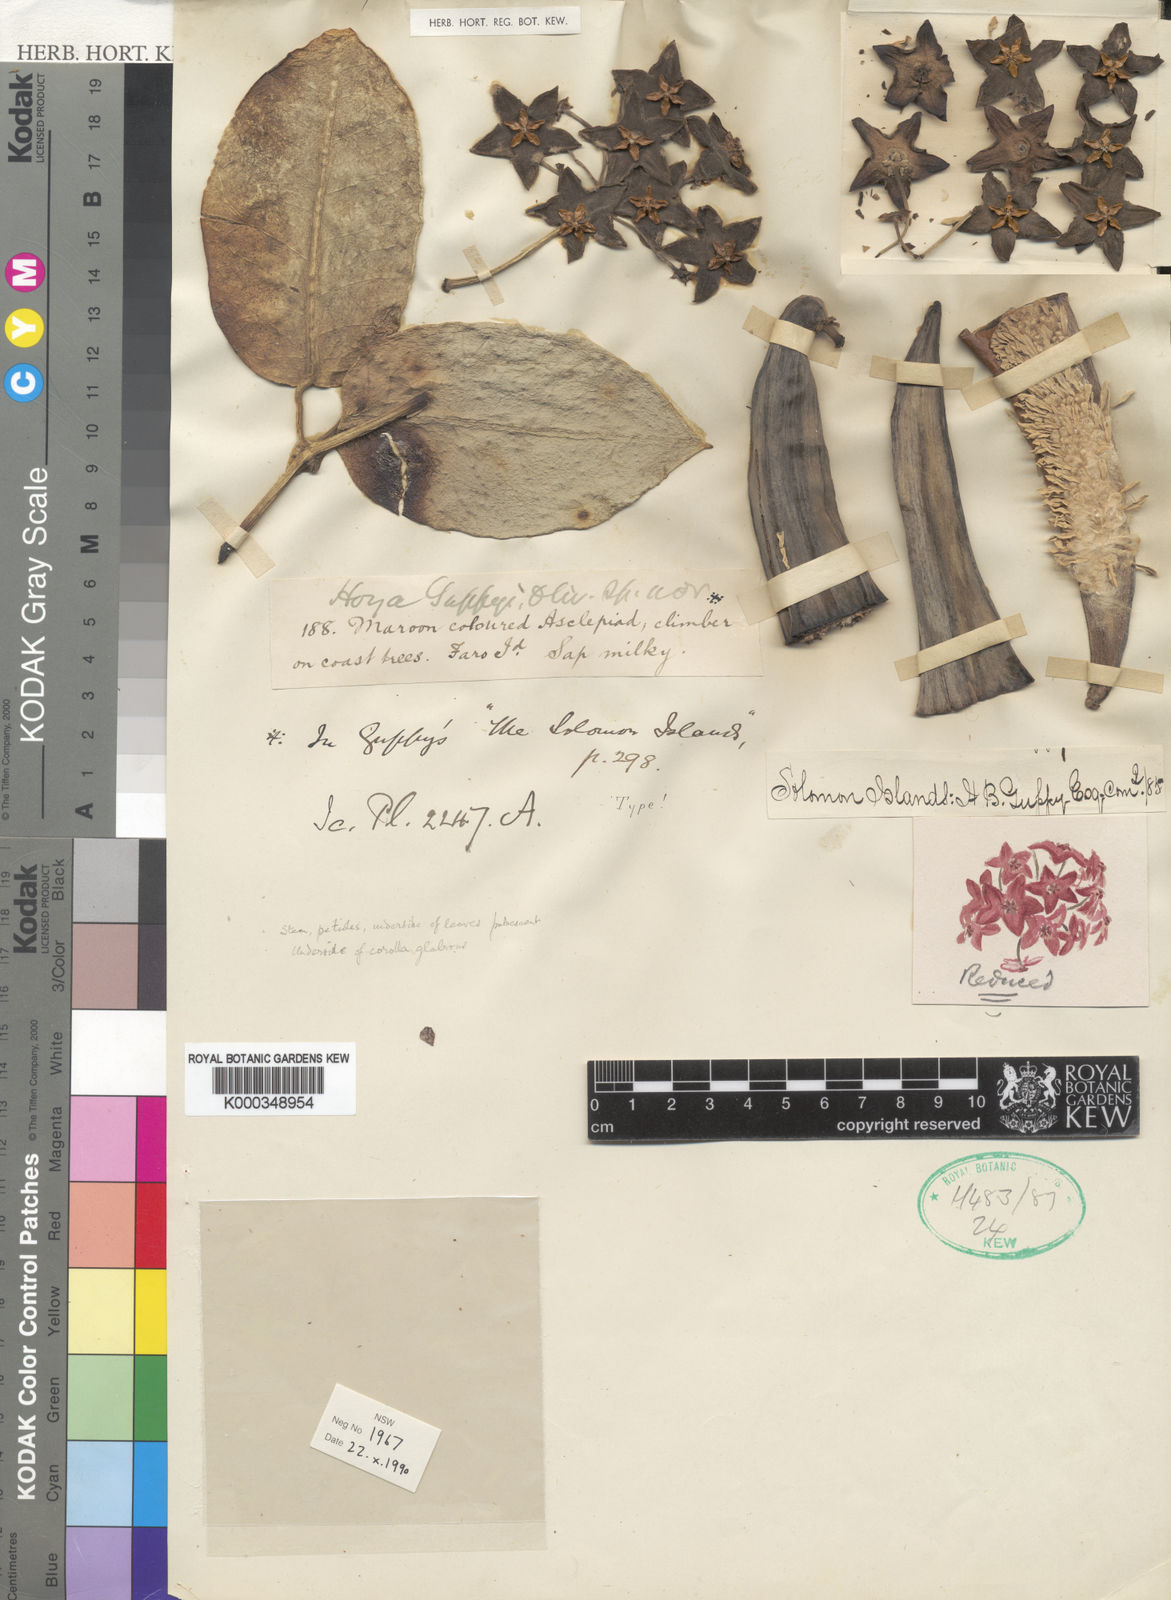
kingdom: Plantae
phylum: Tracheophyta
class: Magnoliopsida
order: Gentianales
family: Apocynaceae
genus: Eriostemma
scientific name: Eriostemma guppyi
